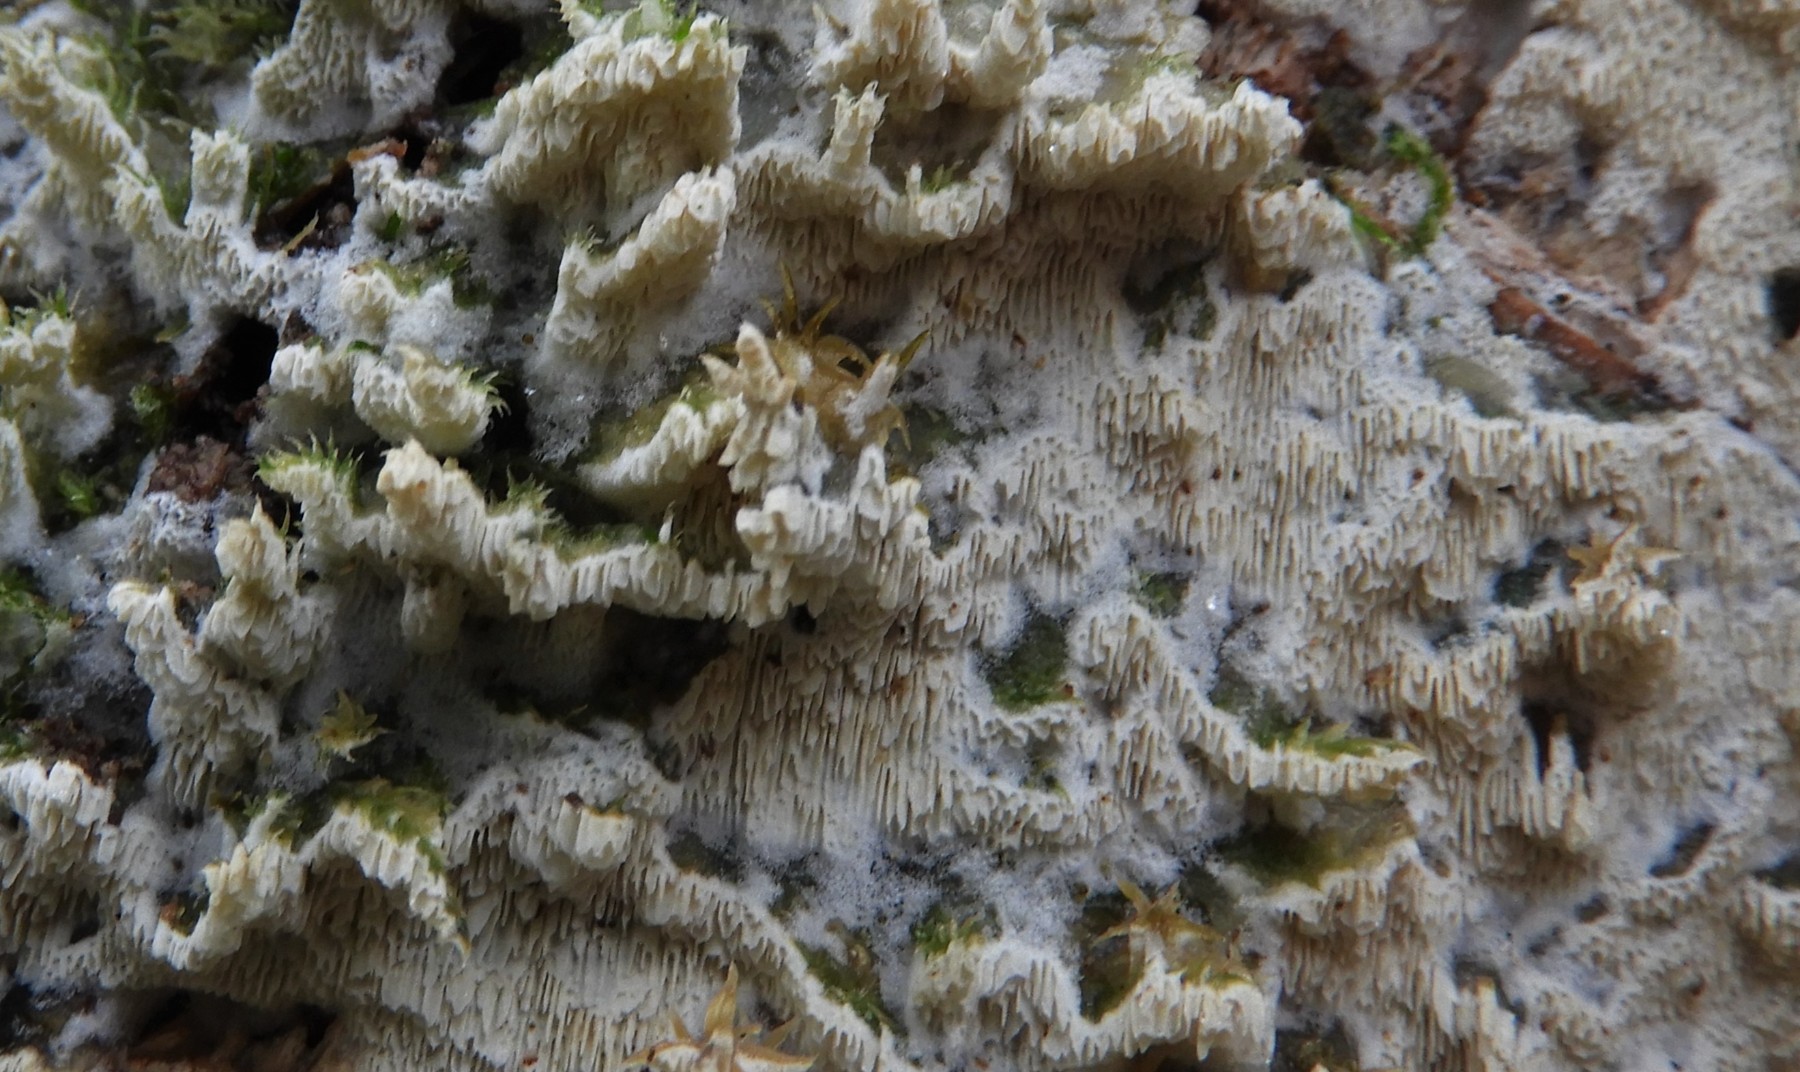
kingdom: Fungi
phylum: Basidiomycota
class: Agaricomycetes
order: Hymenochaetales
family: Schizoporaceae
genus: Schizopora
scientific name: Schizopora paradoxa
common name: hvid tandsvamp
